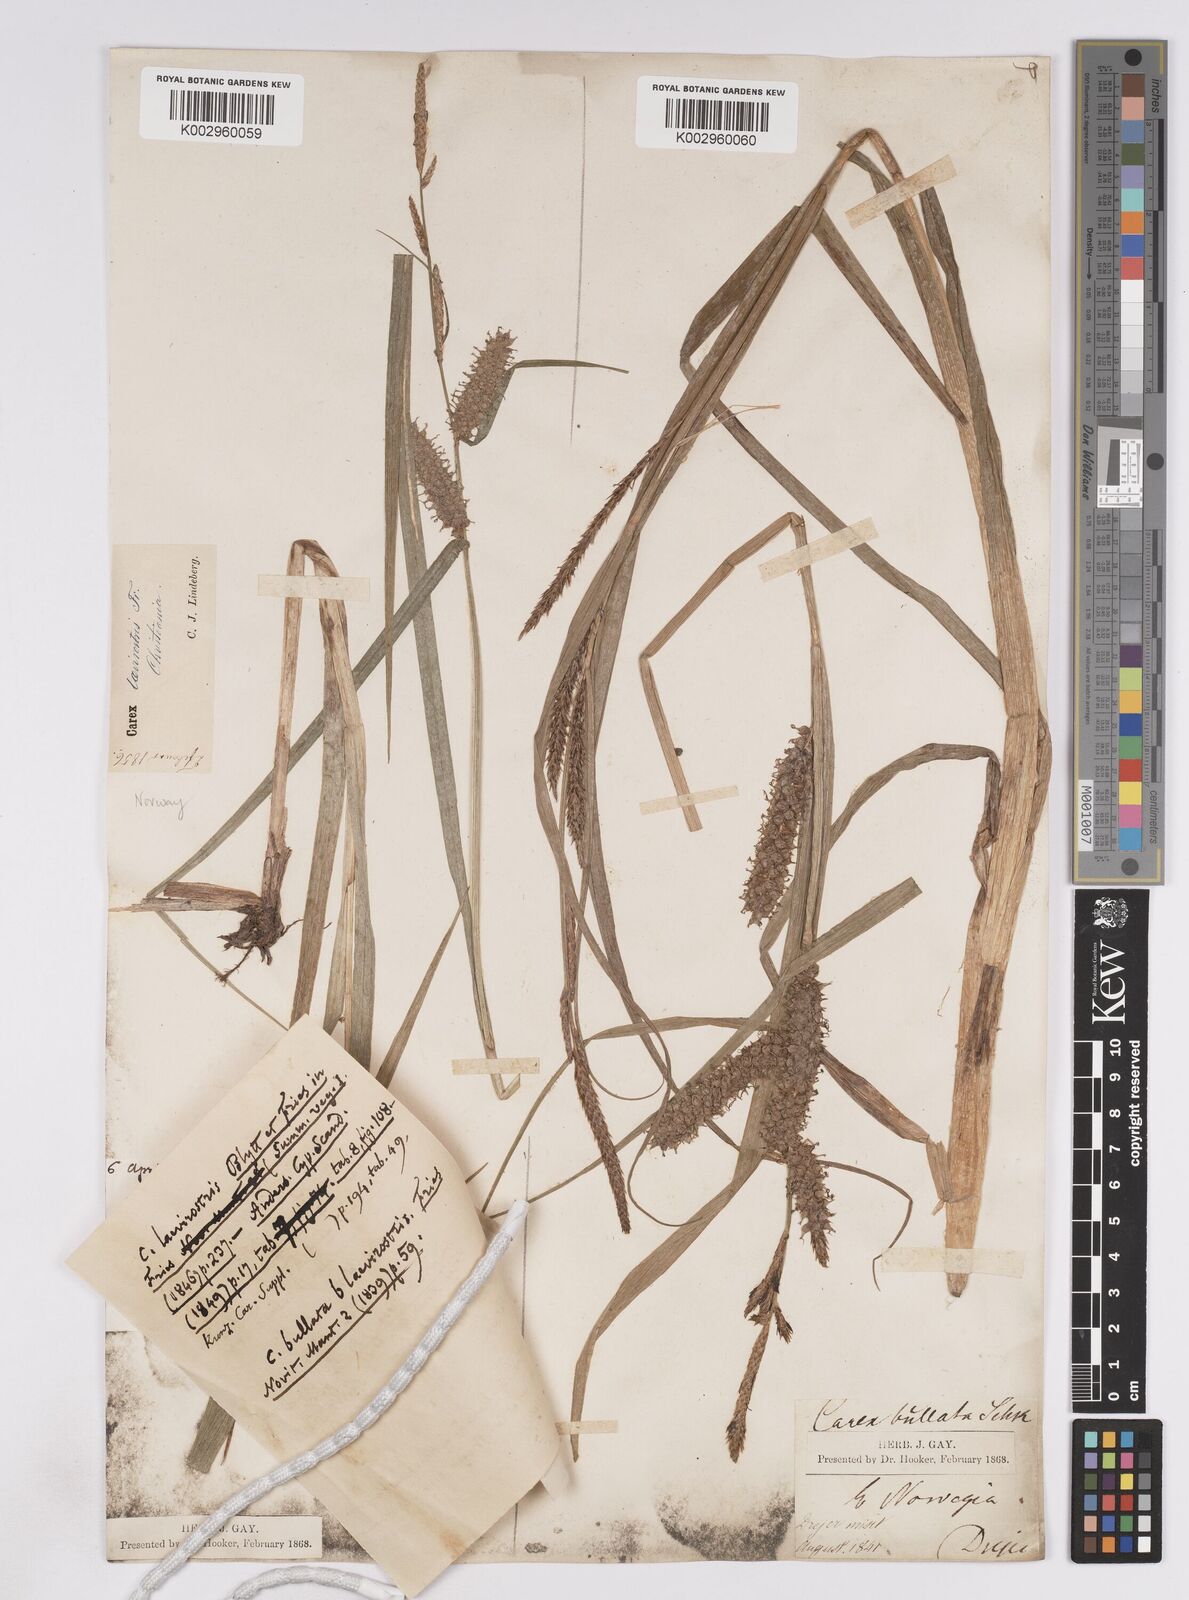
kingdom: Plantae
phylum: Tracheophyta
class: Liliopsida
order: Poales
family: Cyperaceae
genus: Carex
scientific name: Carex utriculata
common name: Beaked sedge
